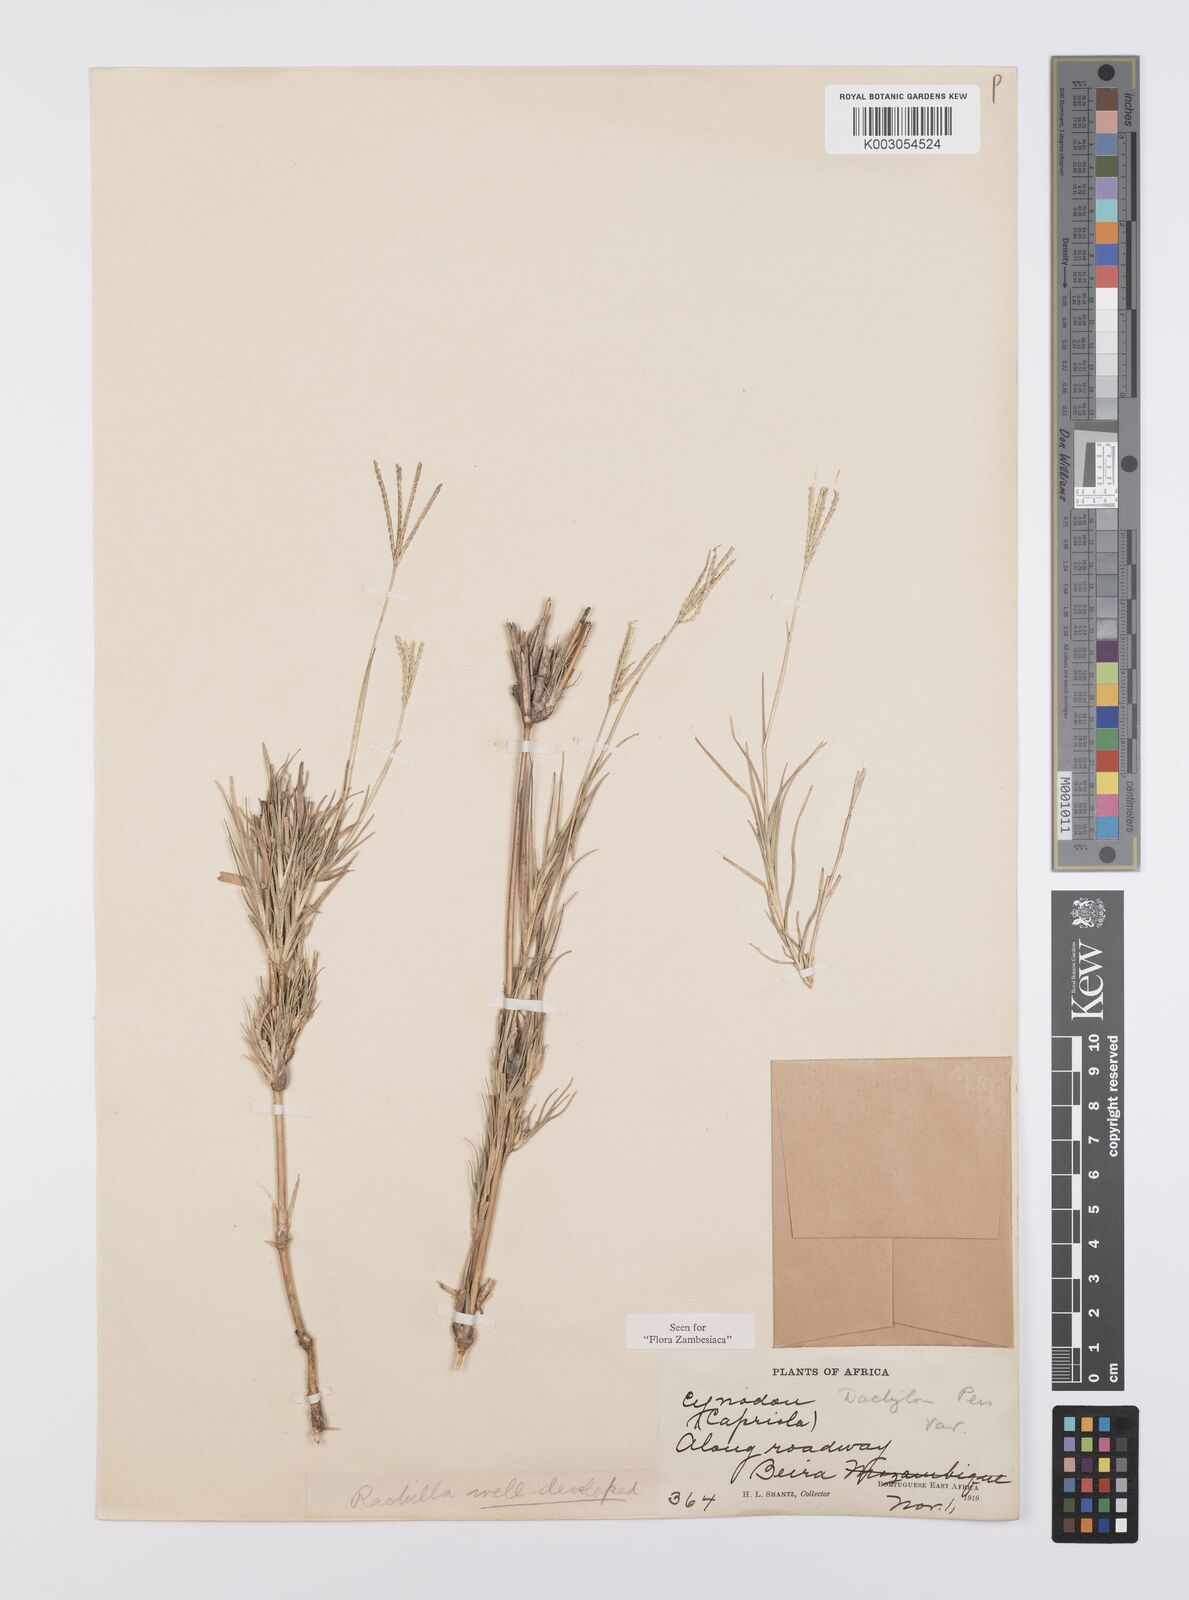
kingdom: Plantae
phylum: Tracheophyta
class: Liliopsida
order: Poales
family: Poaceae
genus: Cynodon
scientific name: Cynodon dactylon
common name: Bermuda grass
